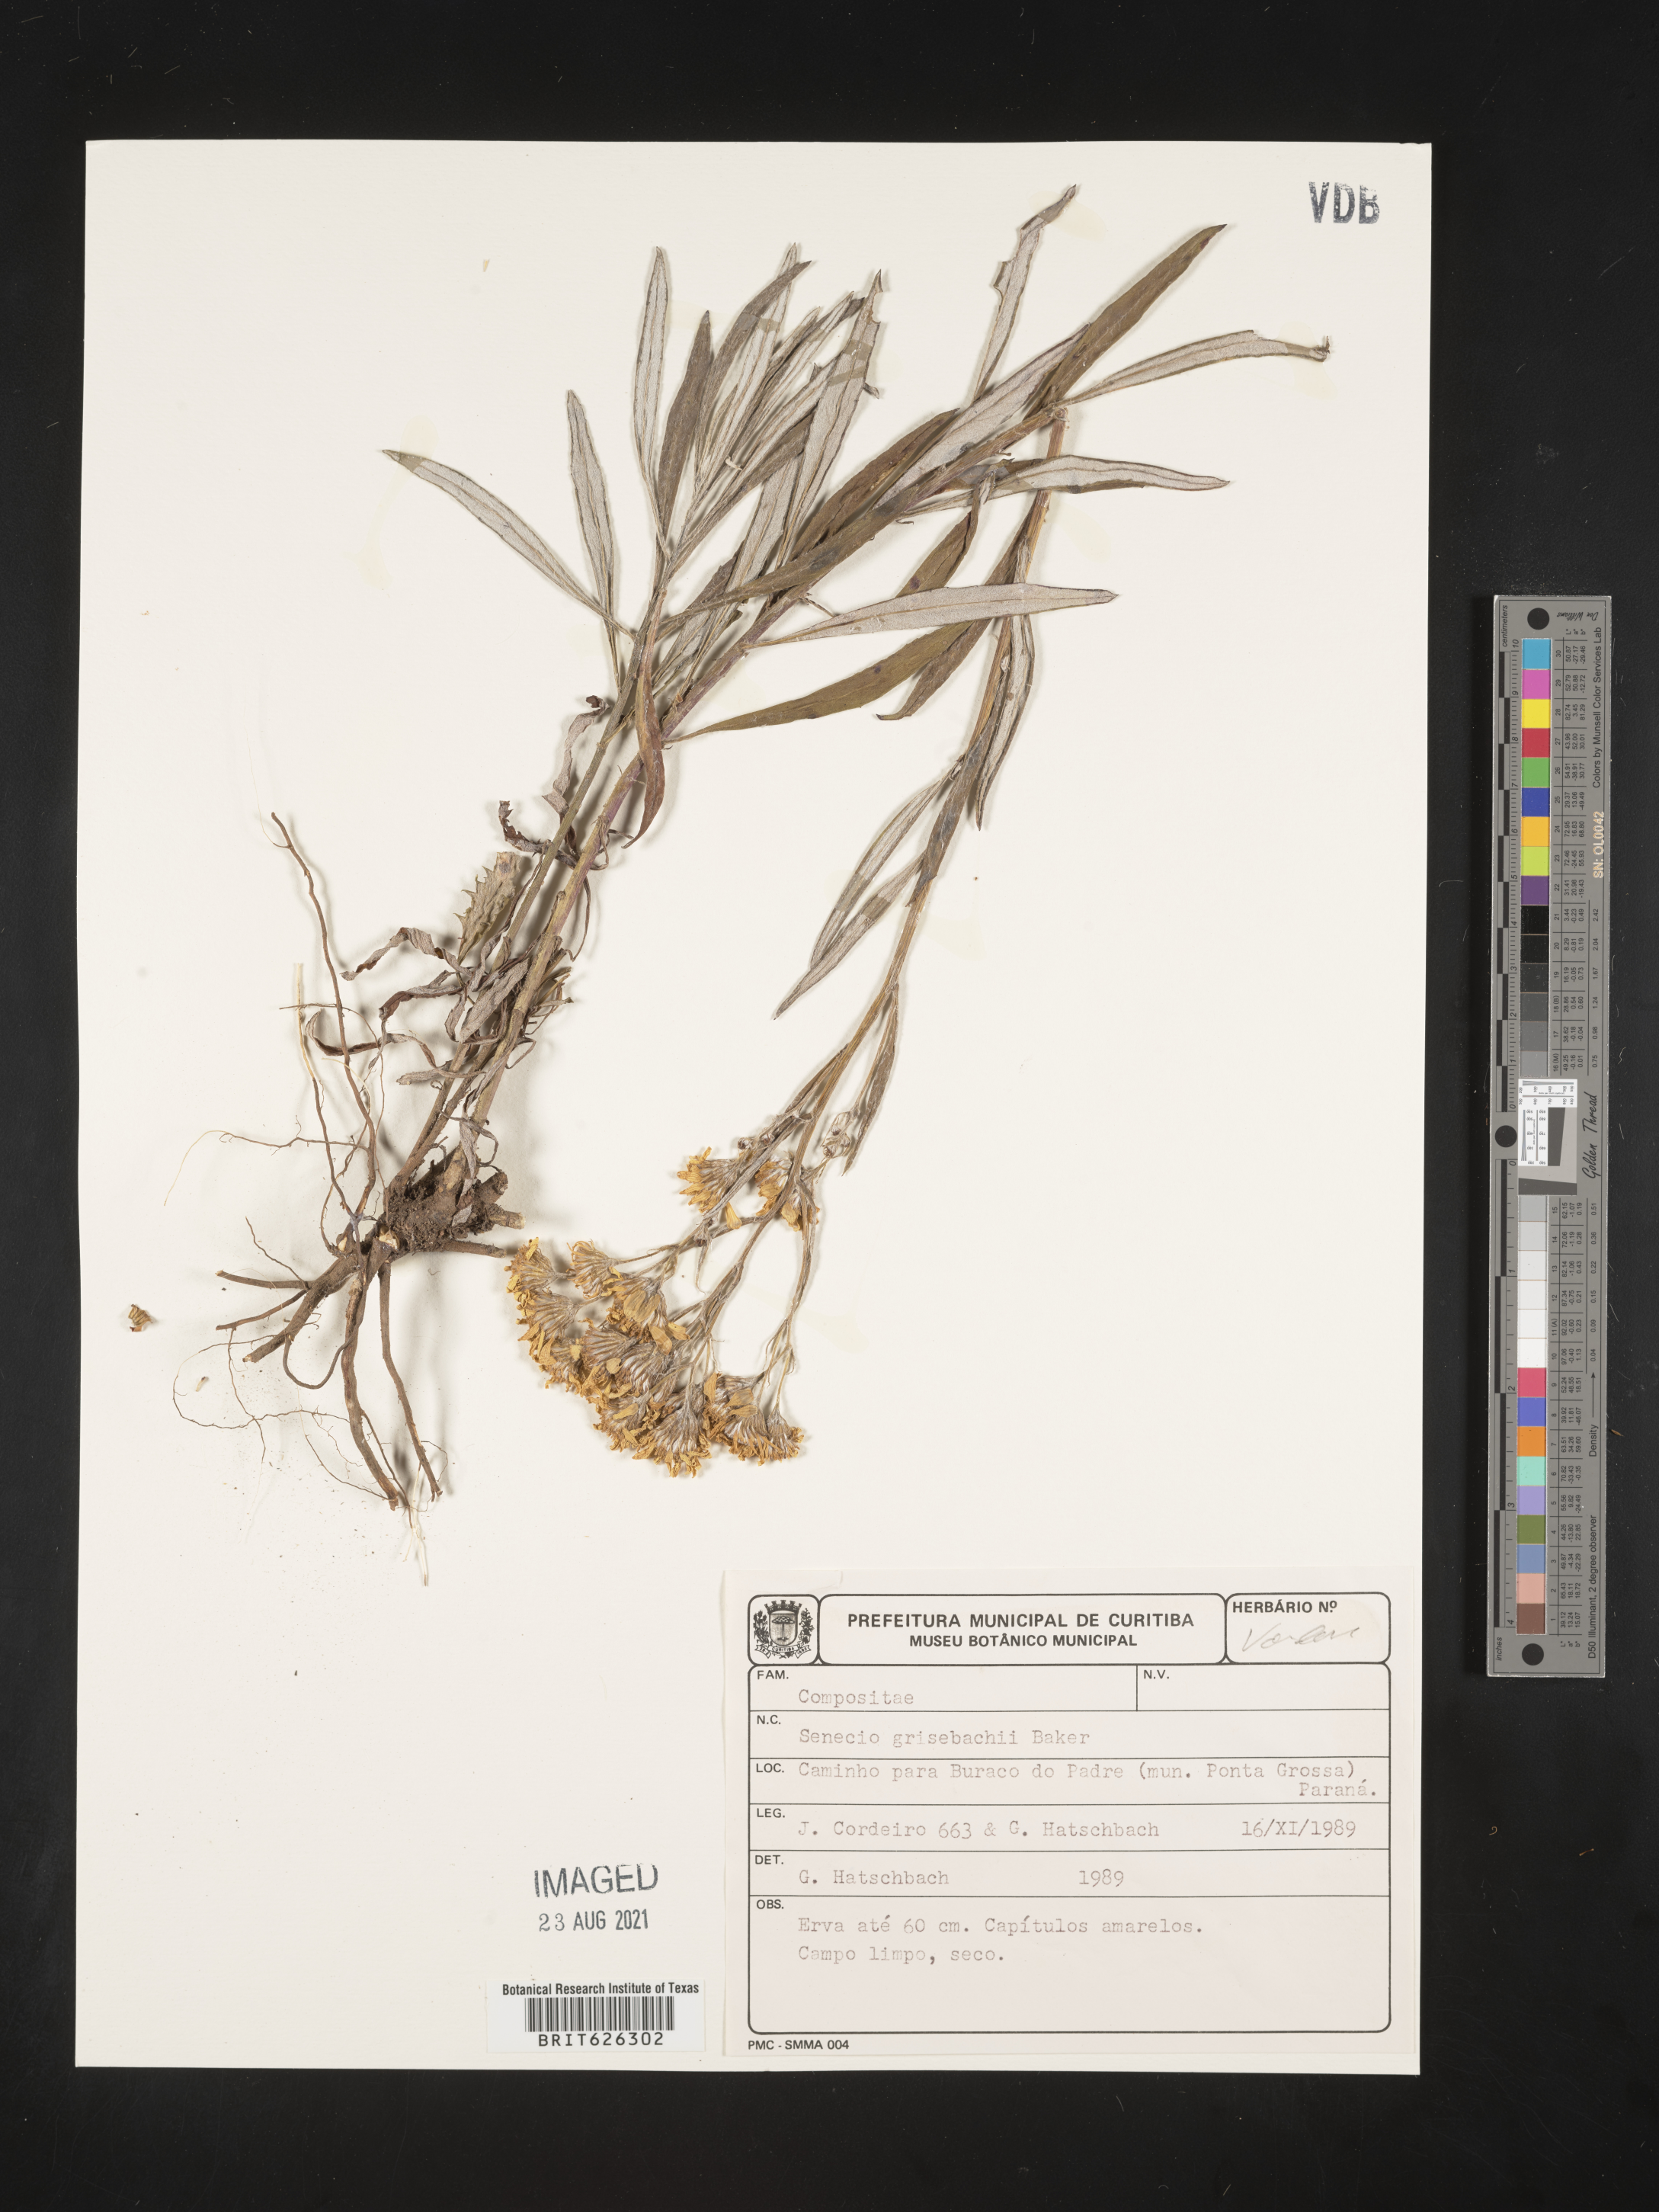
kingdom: Plantae
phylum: Tracheophyta
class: Magnoliopsida
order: Asterales
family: Asteraceae
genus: Senecio
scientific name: Senecio grisebachii
